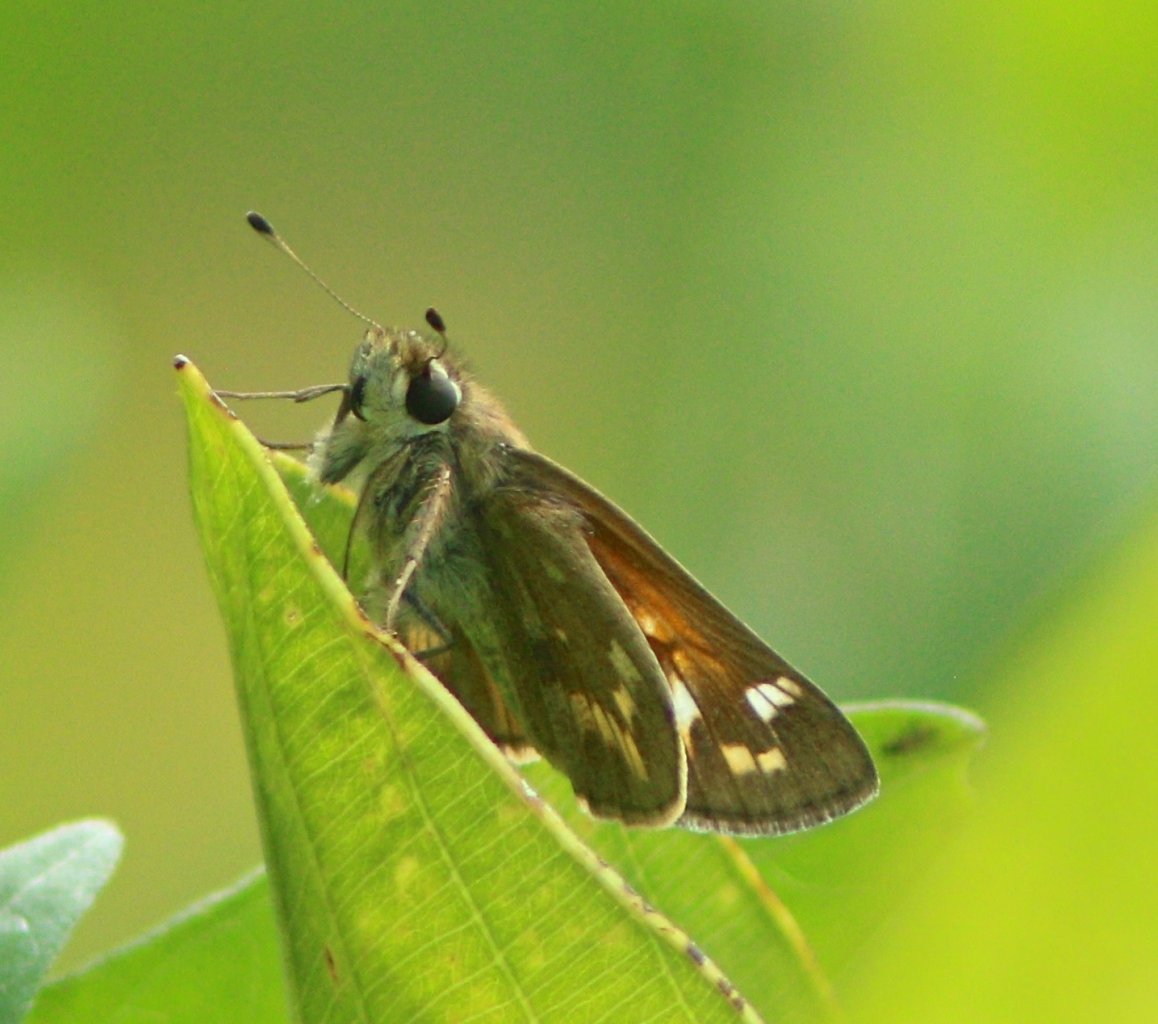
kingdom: Animalia
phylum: Arthropoda
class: Insecta
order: Lepidoptera
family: Hesperiidae
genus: Atalopedes
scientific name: Atalopedes campestris
